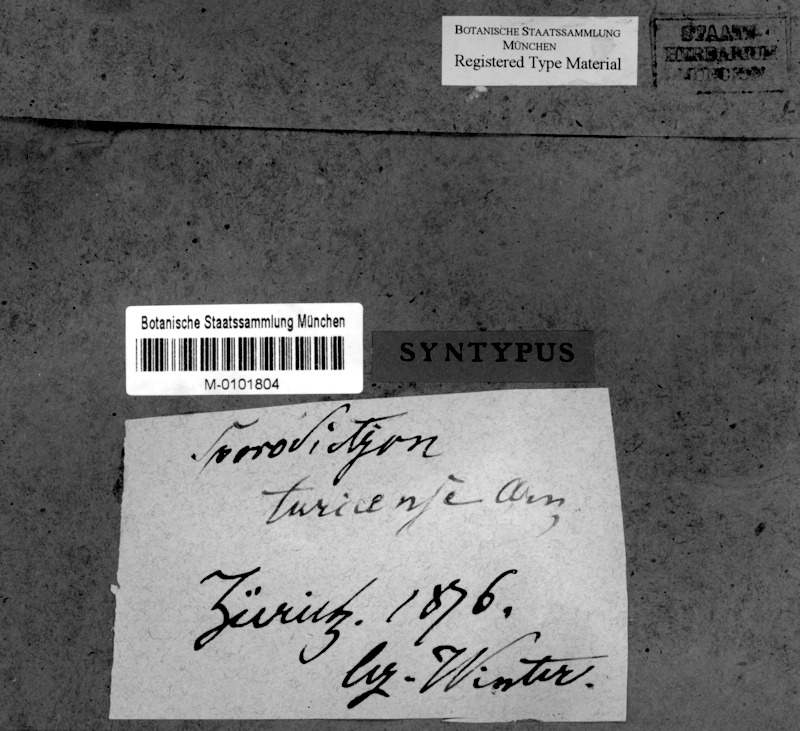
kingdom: Fungi
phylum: Ascomycota
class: Eurotiomycetes
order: Verrucariales
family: Verrucariaceae
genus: Sporodictyon
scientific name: Sporodictyon turicense
